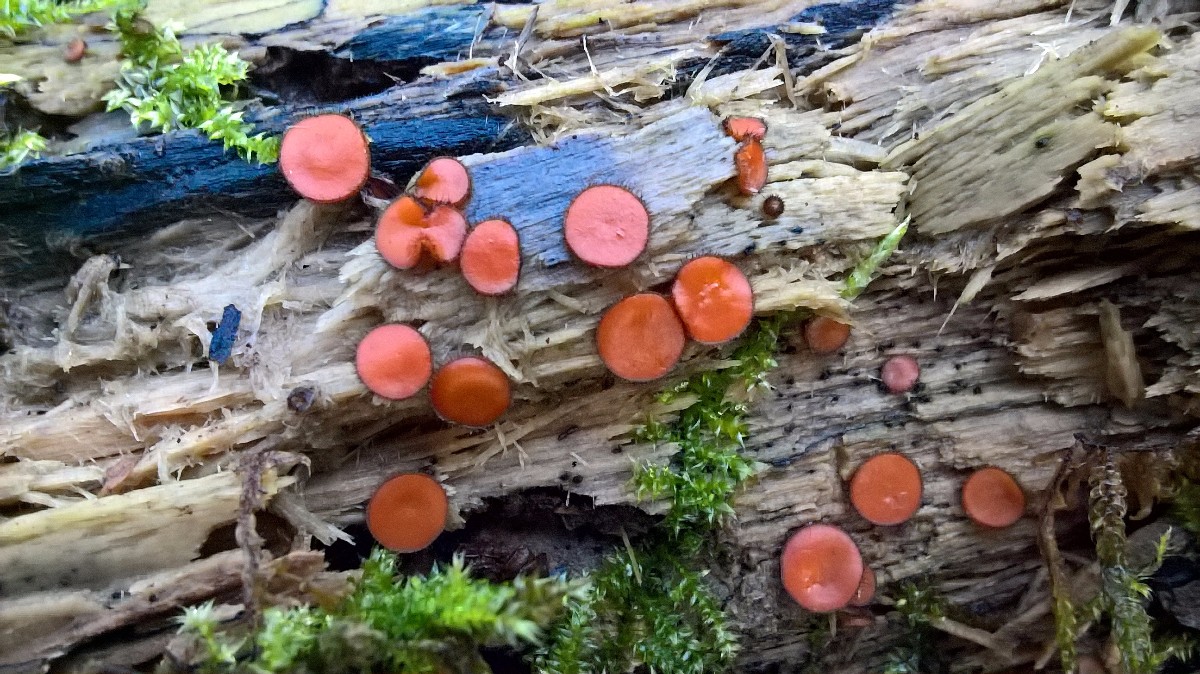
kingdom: Fungi
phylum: Ascomycota
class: Pezizomycetes
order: Pezizales
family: Pyronemataceae
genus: Scutellinia
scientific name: Scutellinia scutellata
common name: frynset skjoldbæger
